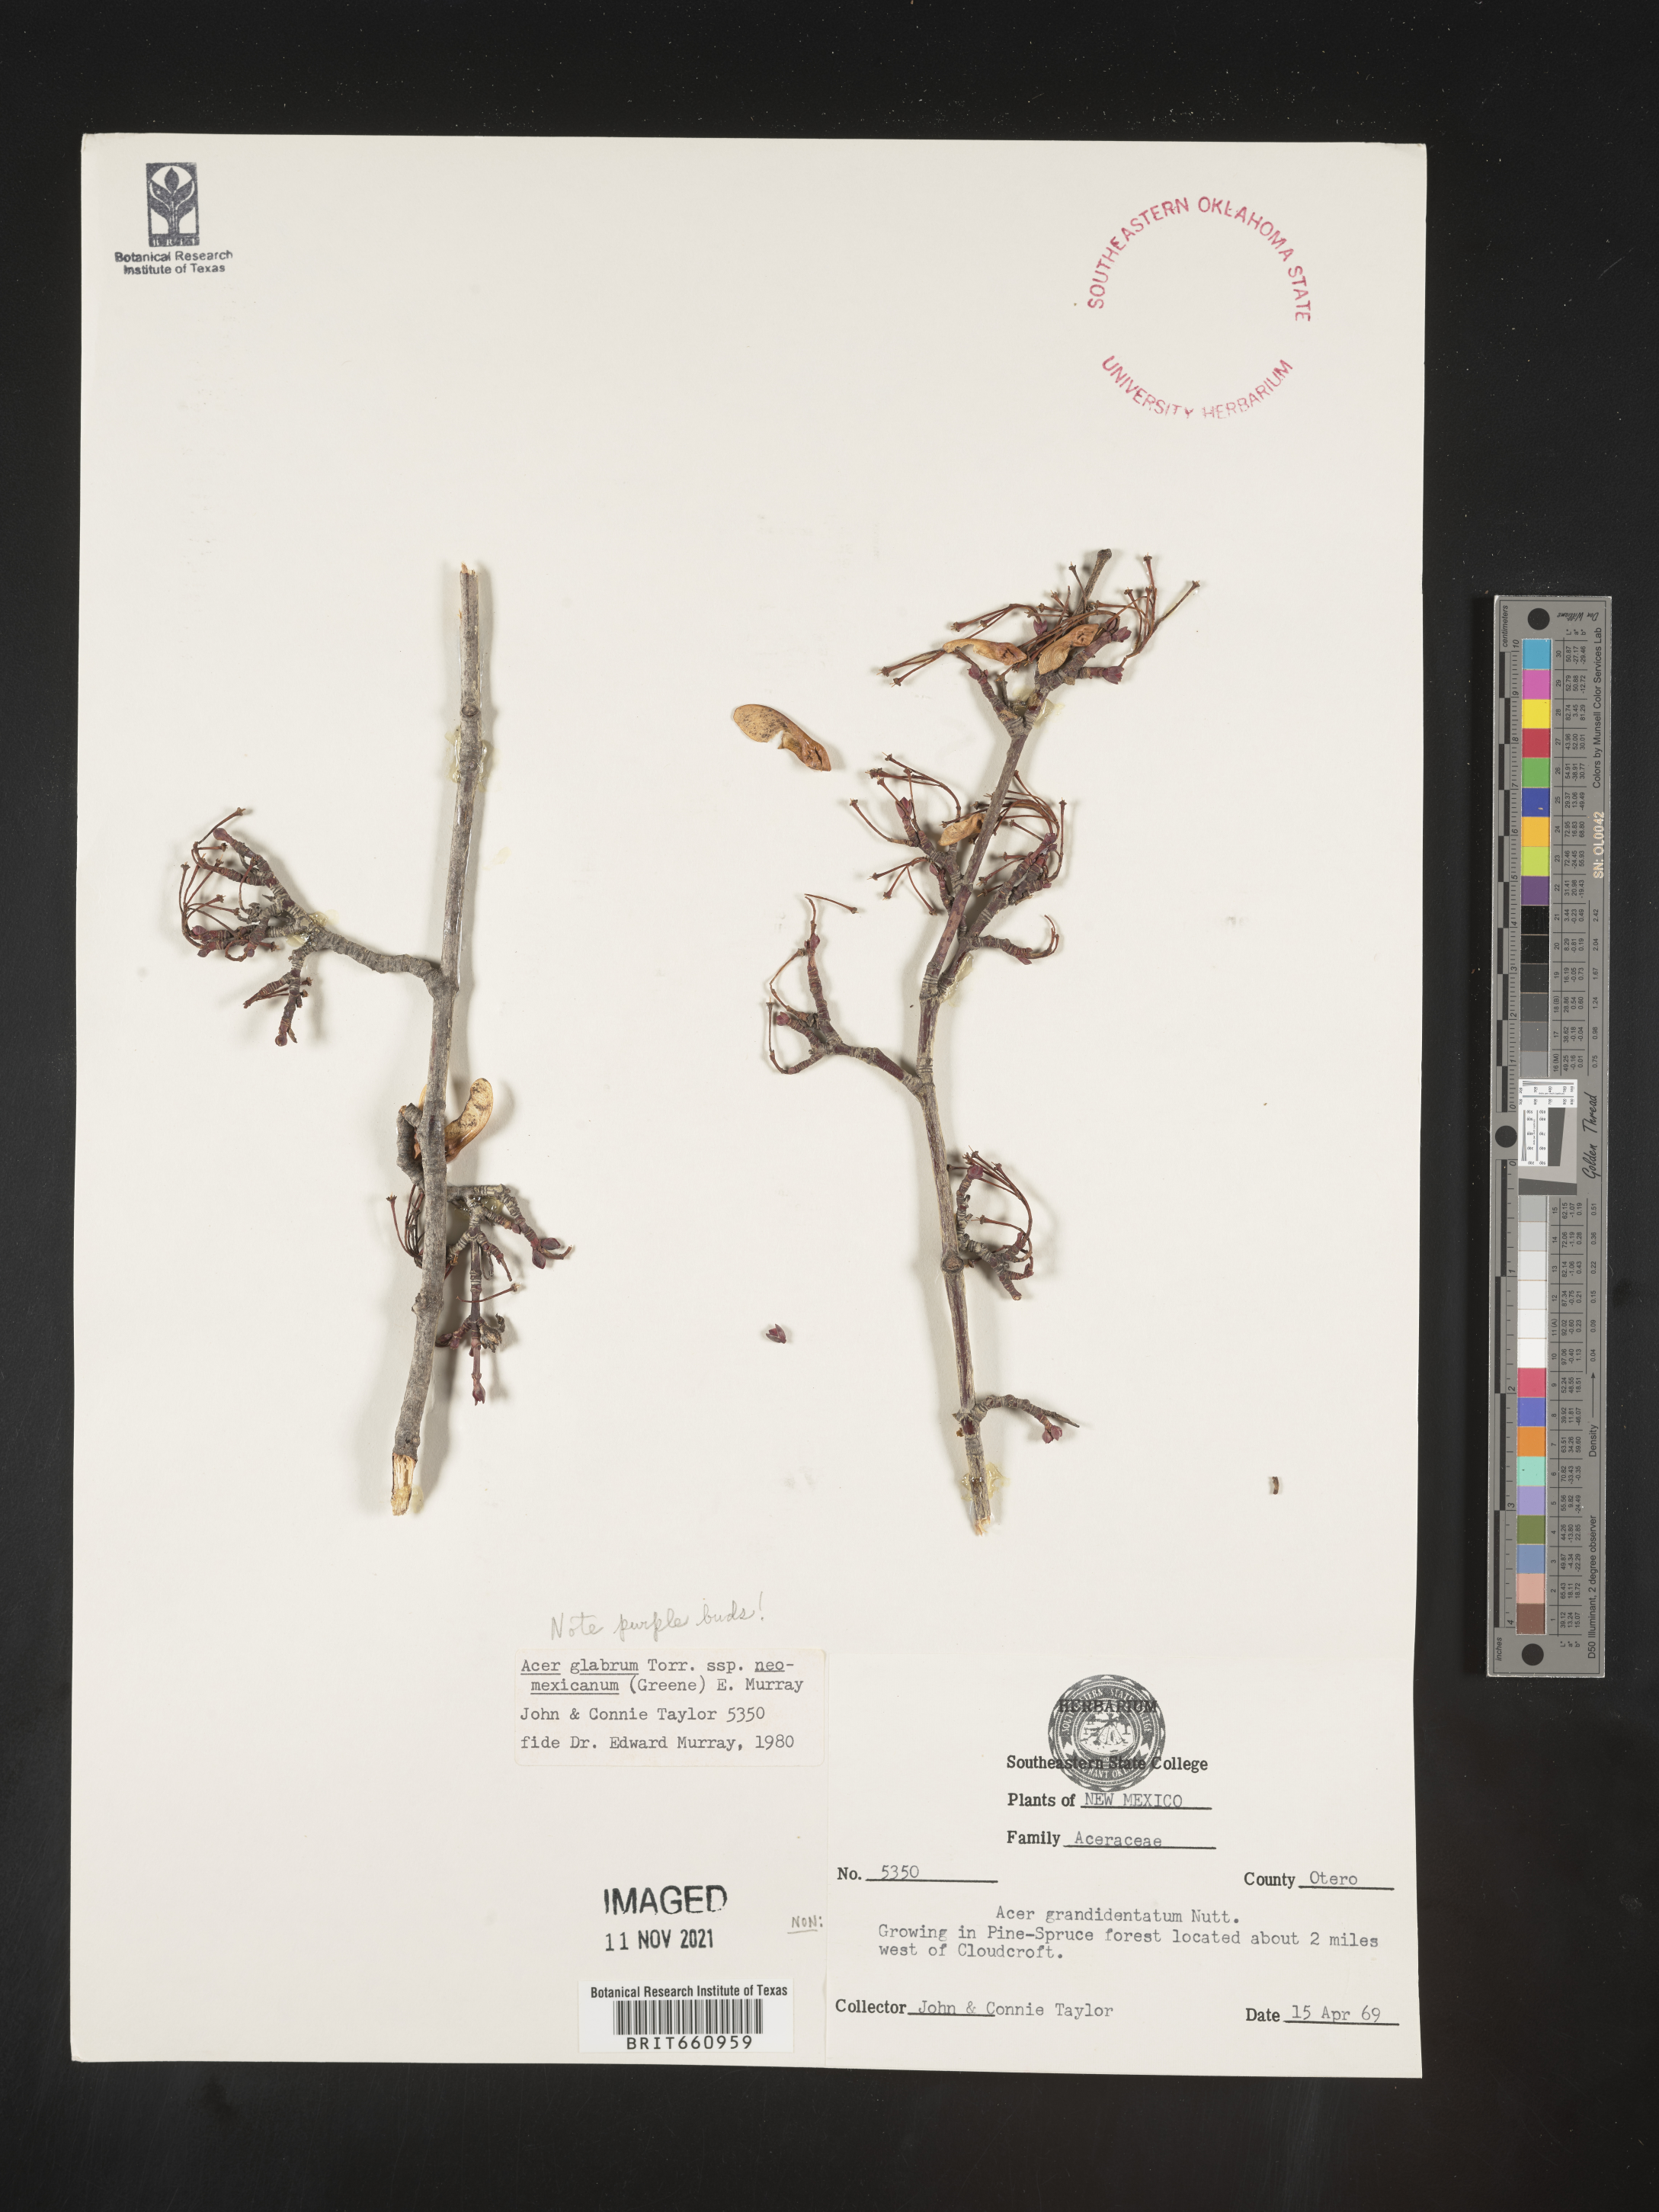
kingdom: Plantae
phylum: Tracheophyta
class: Magnoliopsida
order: Sapindales
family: Sapindaceae
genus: Acer
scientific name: Acer glabrum
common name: Rocky mountain maple
